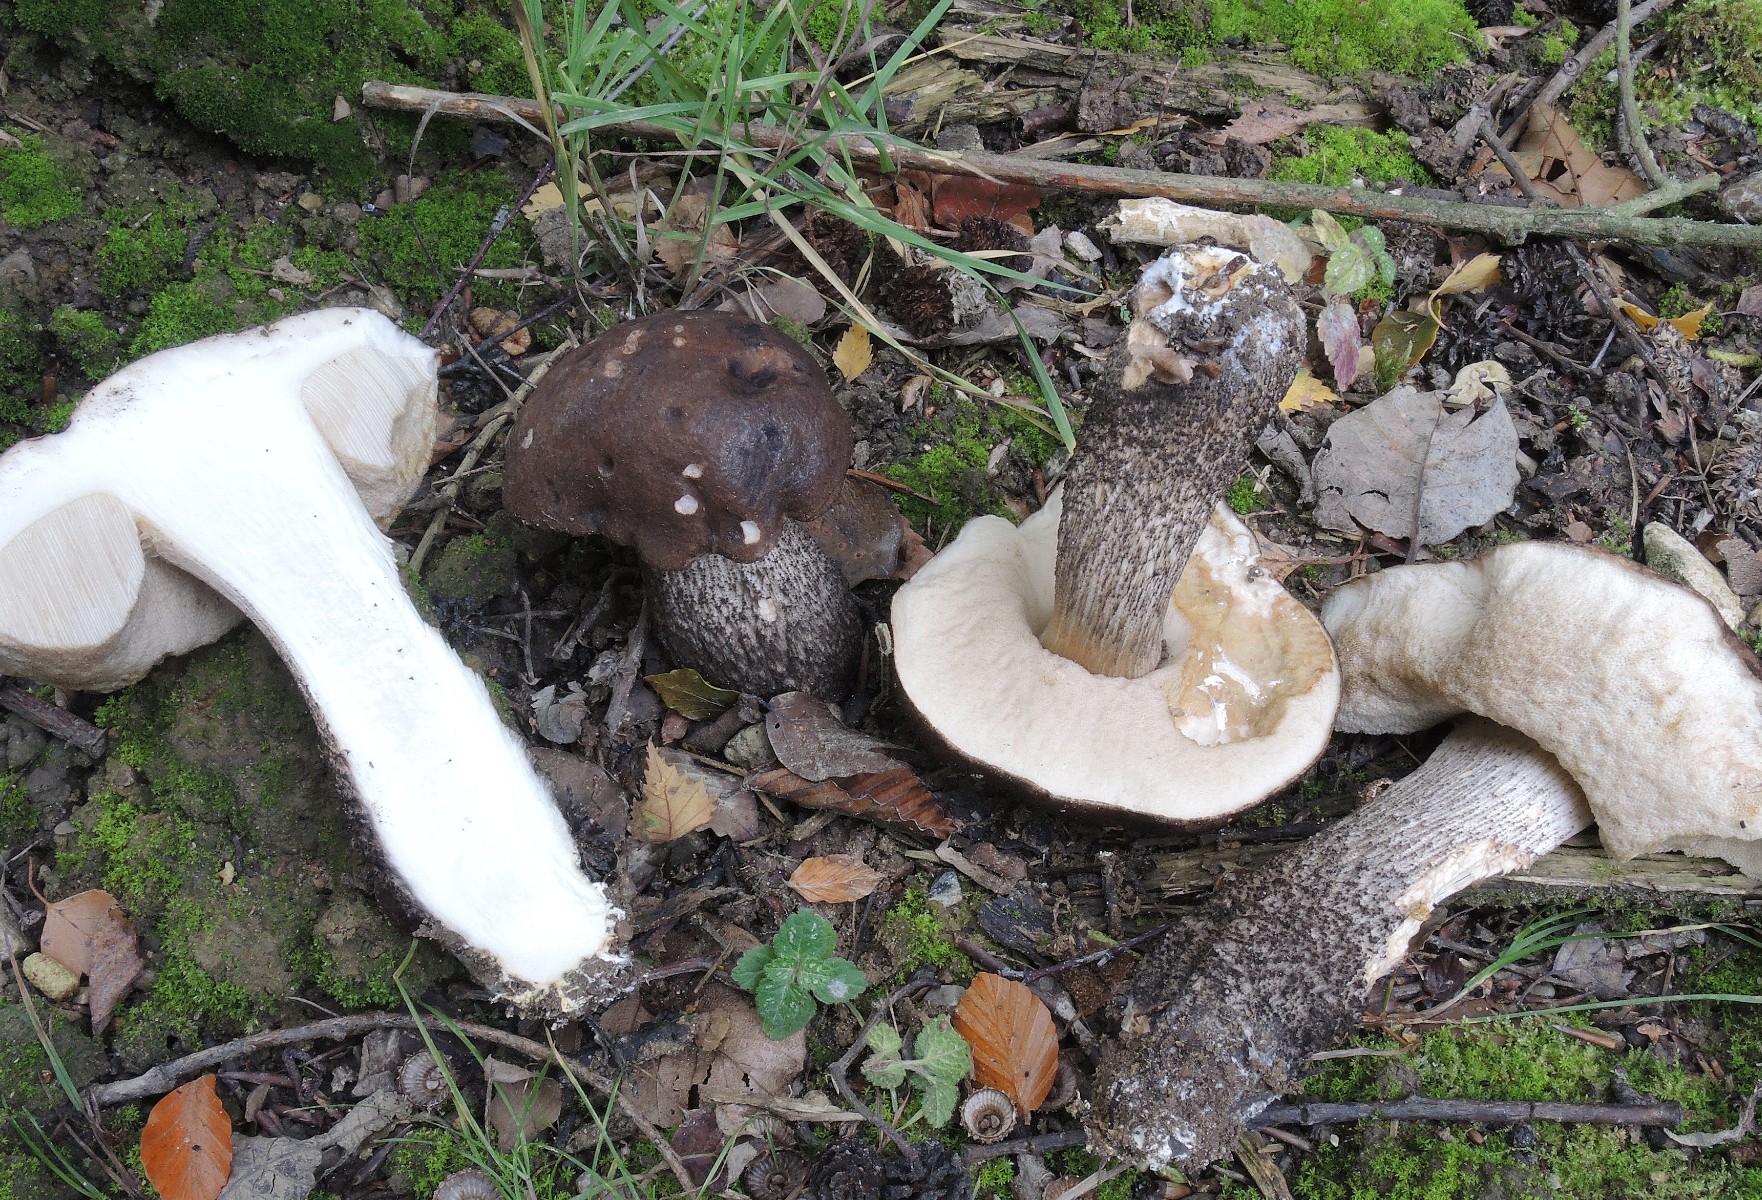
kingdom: Fungi
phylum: Basidiomycota
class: Agaricomycetes
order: Boletales
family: Boletaceae
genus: Leccinum
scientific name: Leccinum melaneum
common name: mørk skælrørhat
